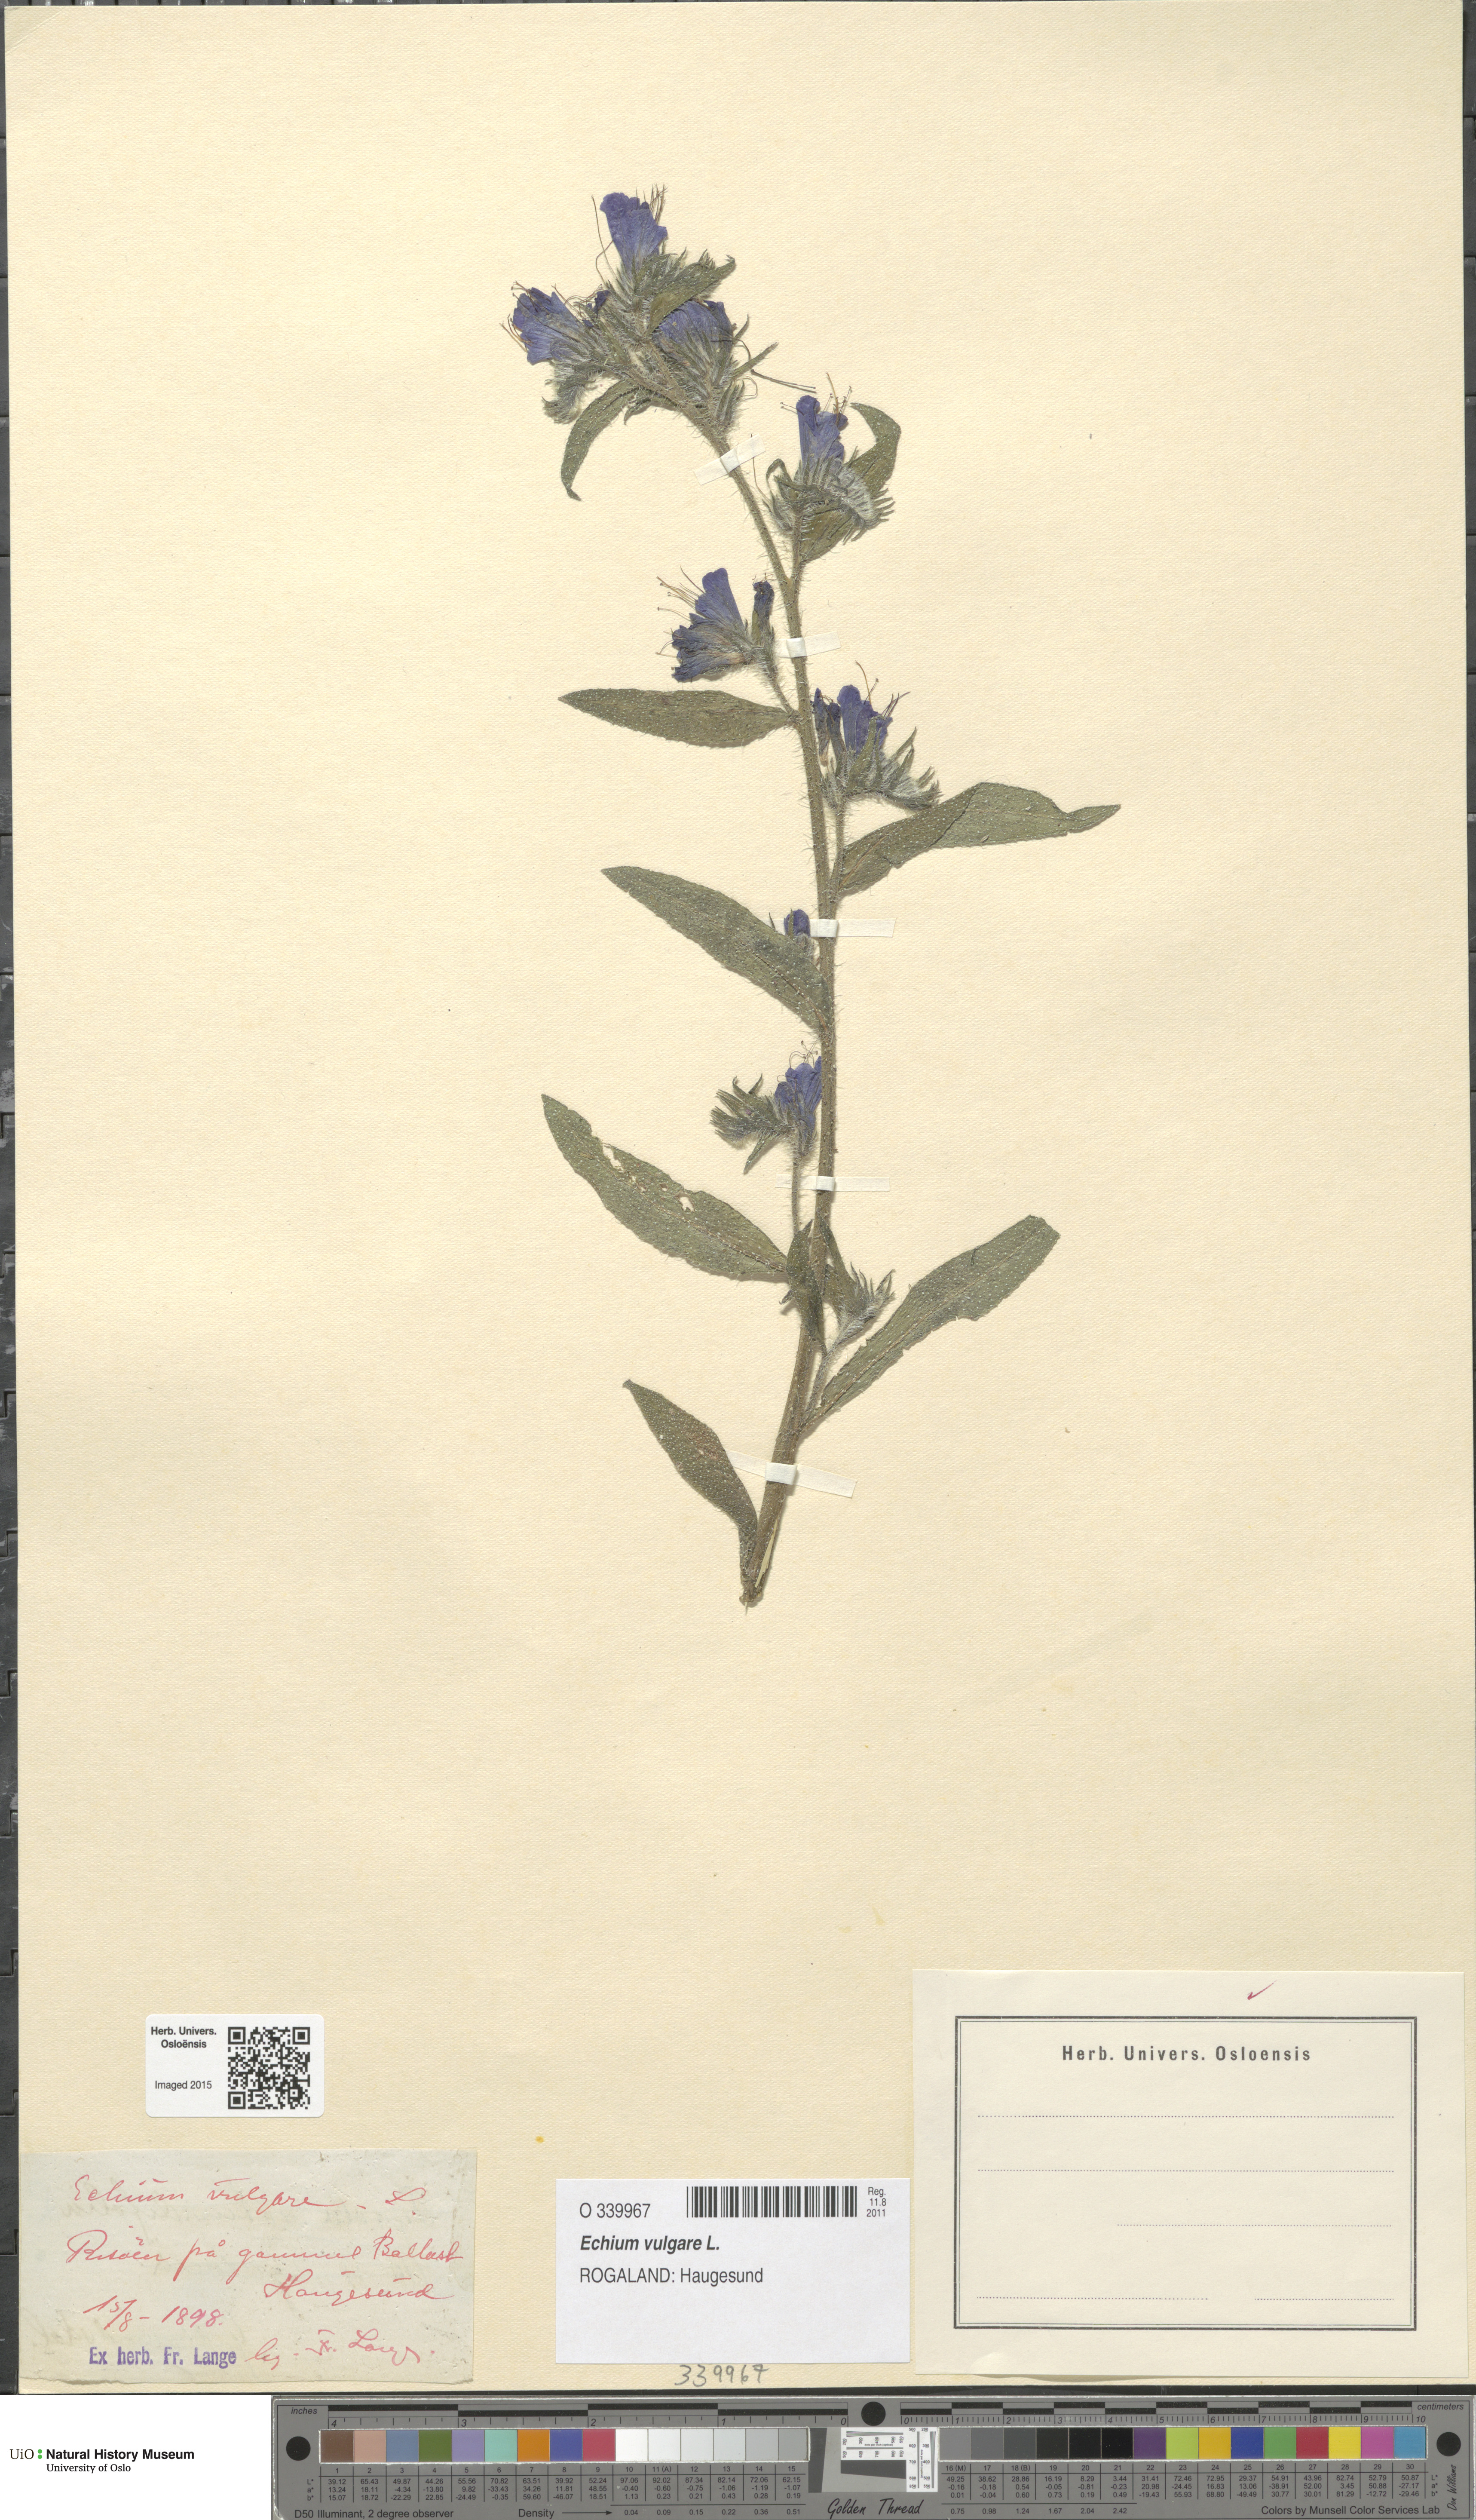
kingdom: Plantae
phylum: Tracheophyta
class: Magnoliopsida
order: Boraginales
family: Boraginaceae
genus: Echium
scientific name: Echium vulgare
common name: Common viper's bugloss
